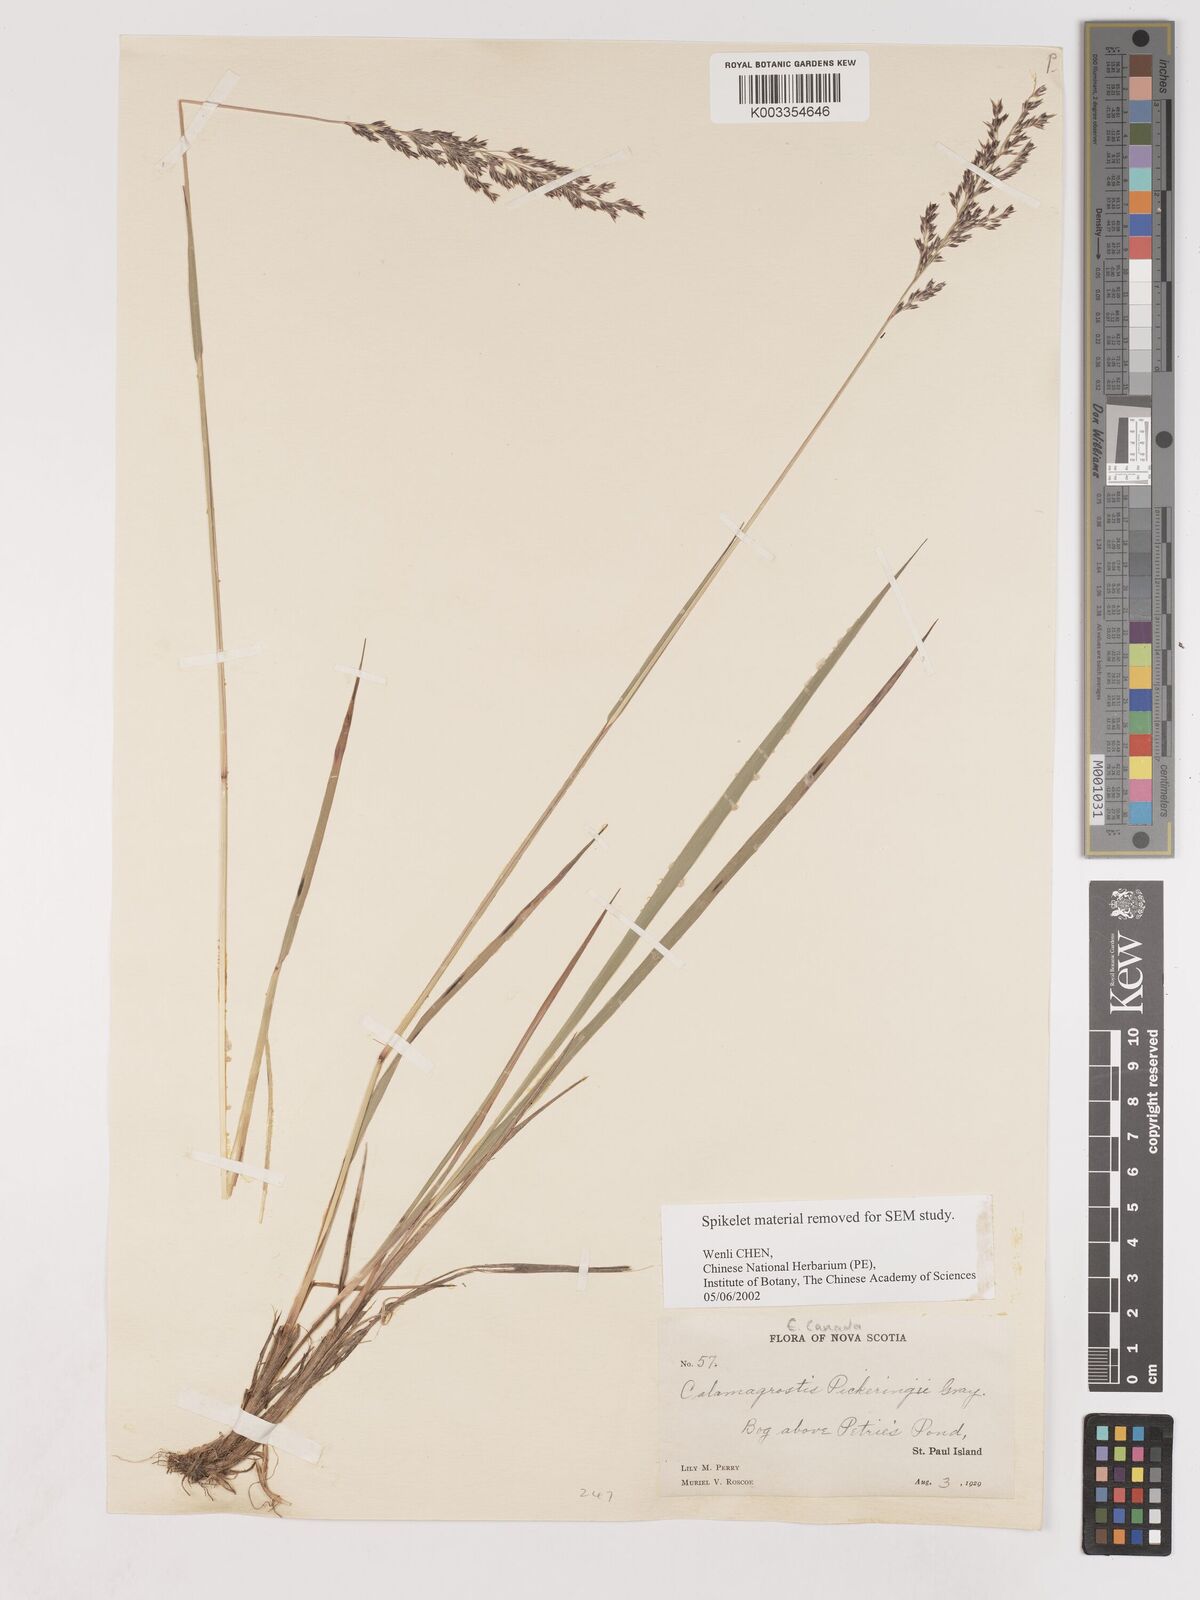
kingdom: Plantae
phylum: Tracheophyta
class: Liliopsida
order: Poales
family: Poaceae
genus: Calamagrostis
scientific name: Calamagrostis pickeringii
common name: Pickering's reed bentgrass
